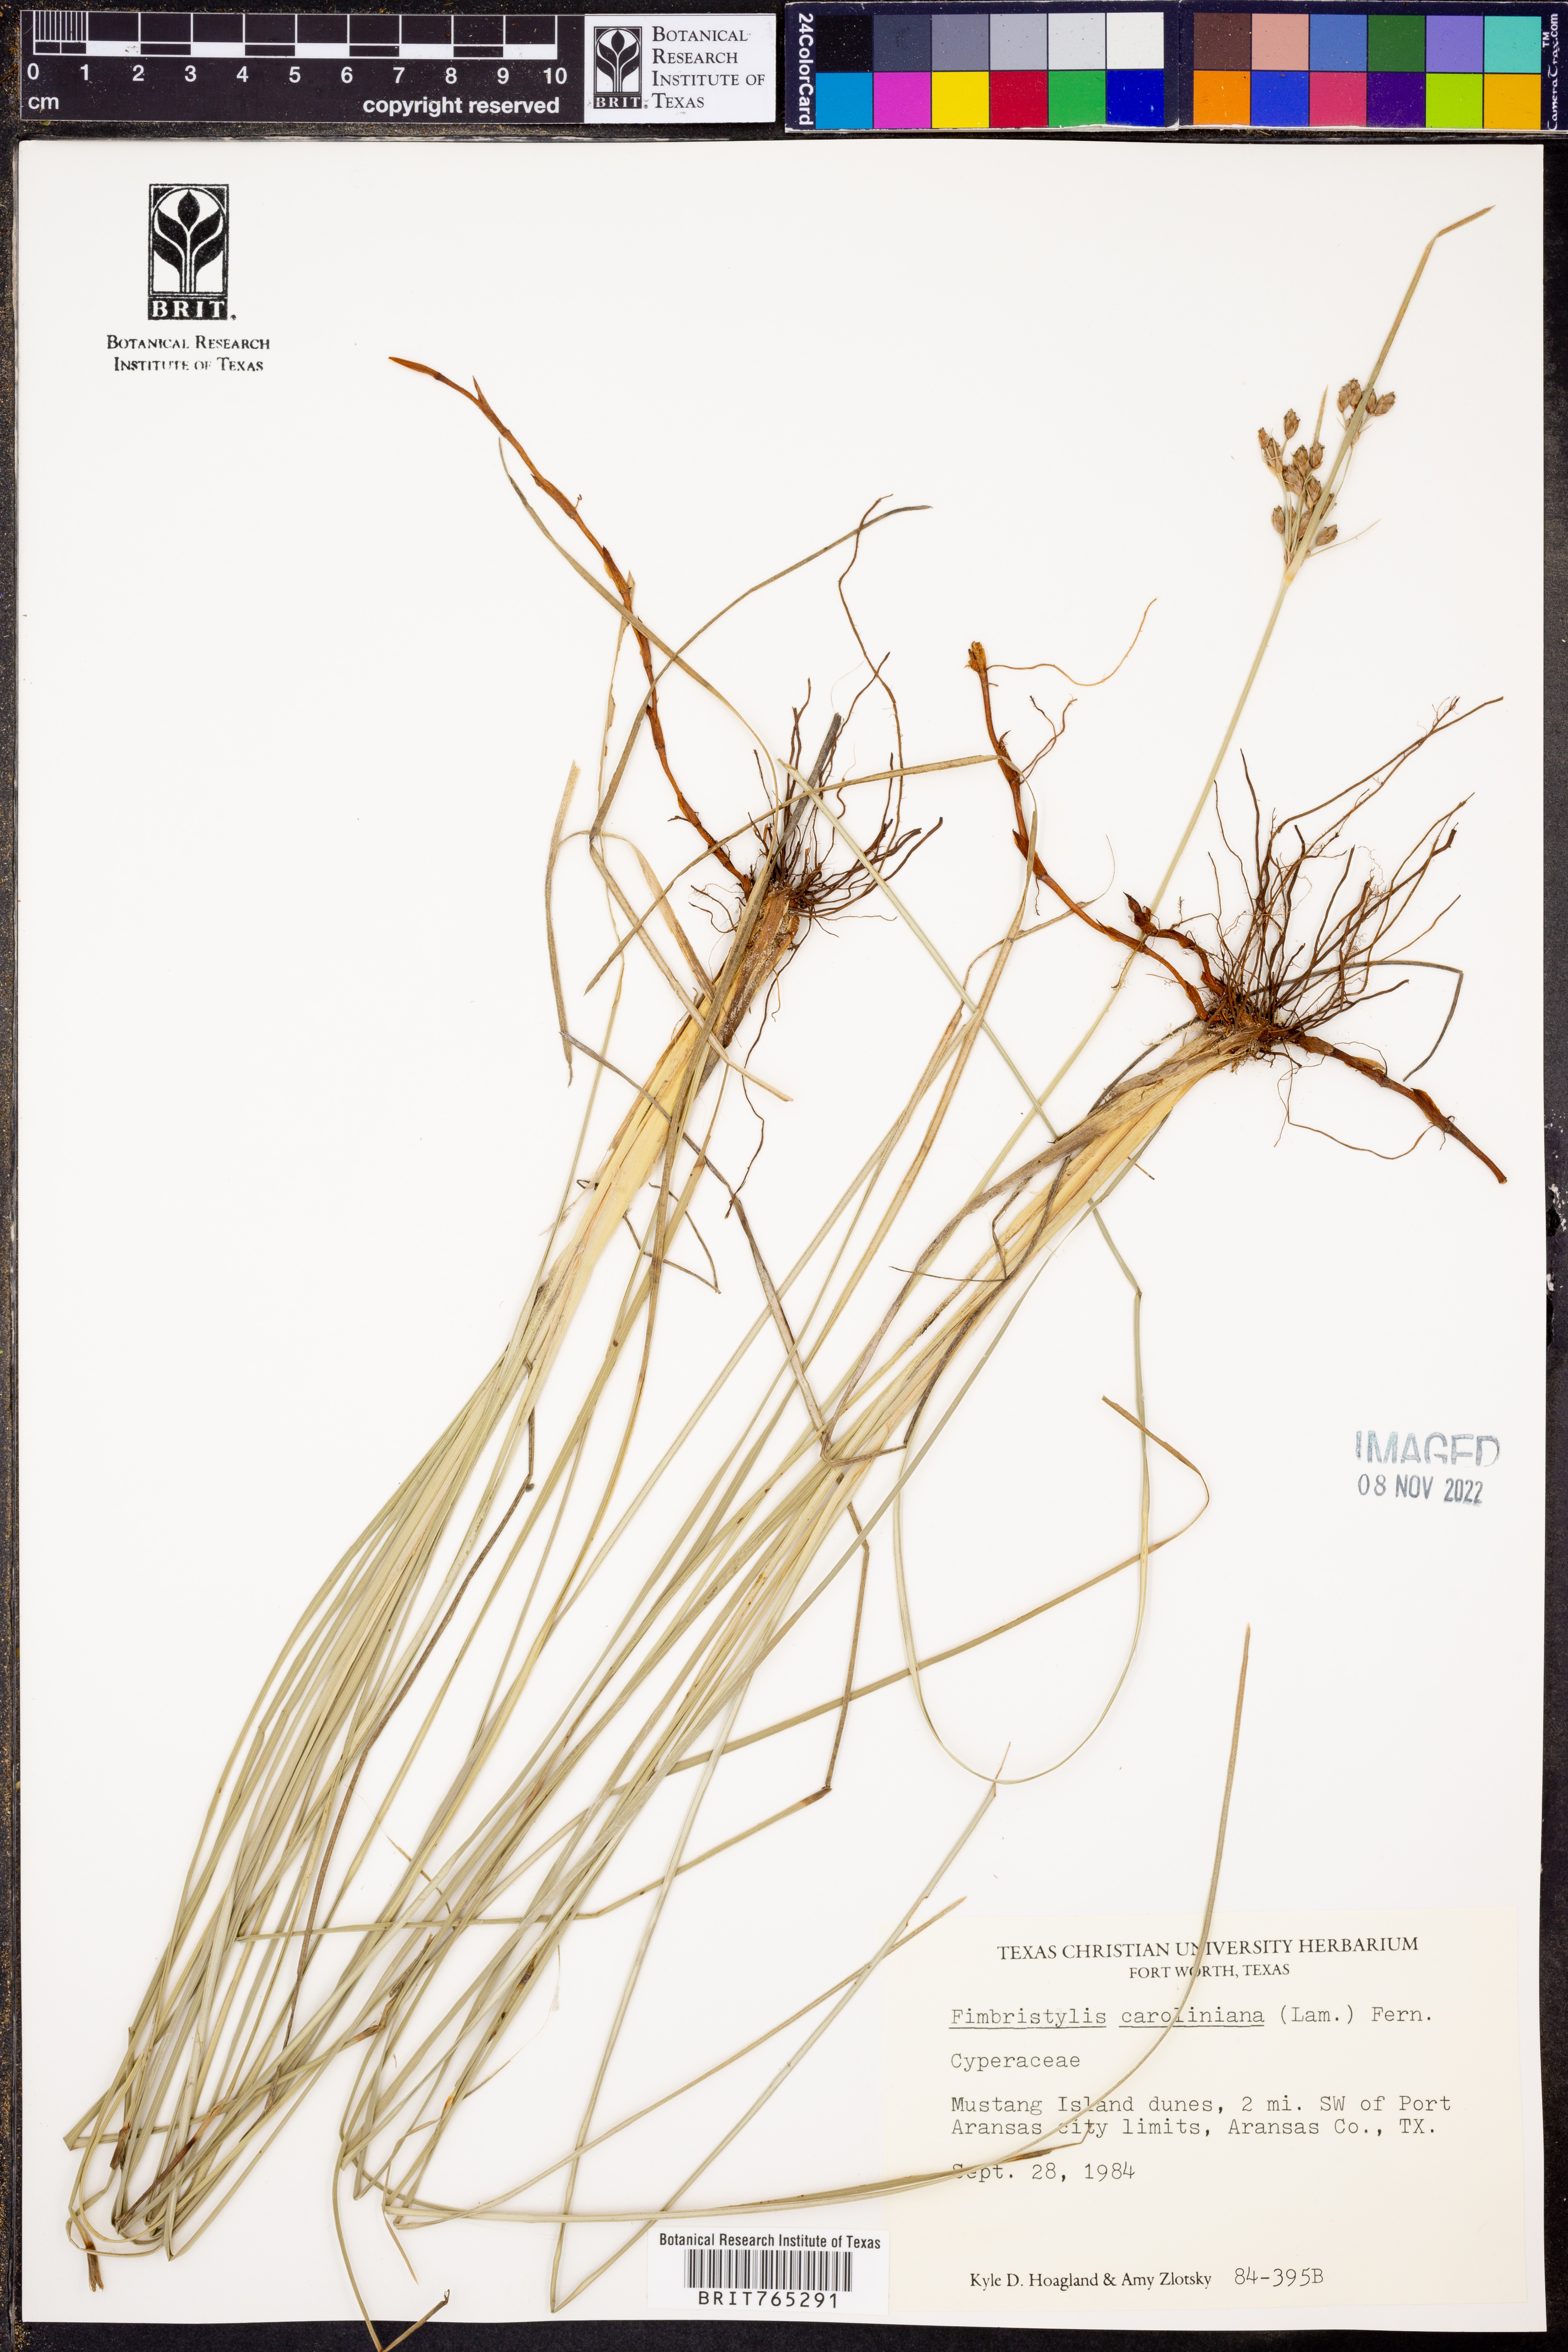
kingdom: Plantae
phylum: Tracheophyta
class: Liliopsida
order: Poales
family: Cyperaceae
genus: Fimbristylis
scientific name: Fimbristylis caroliniana
